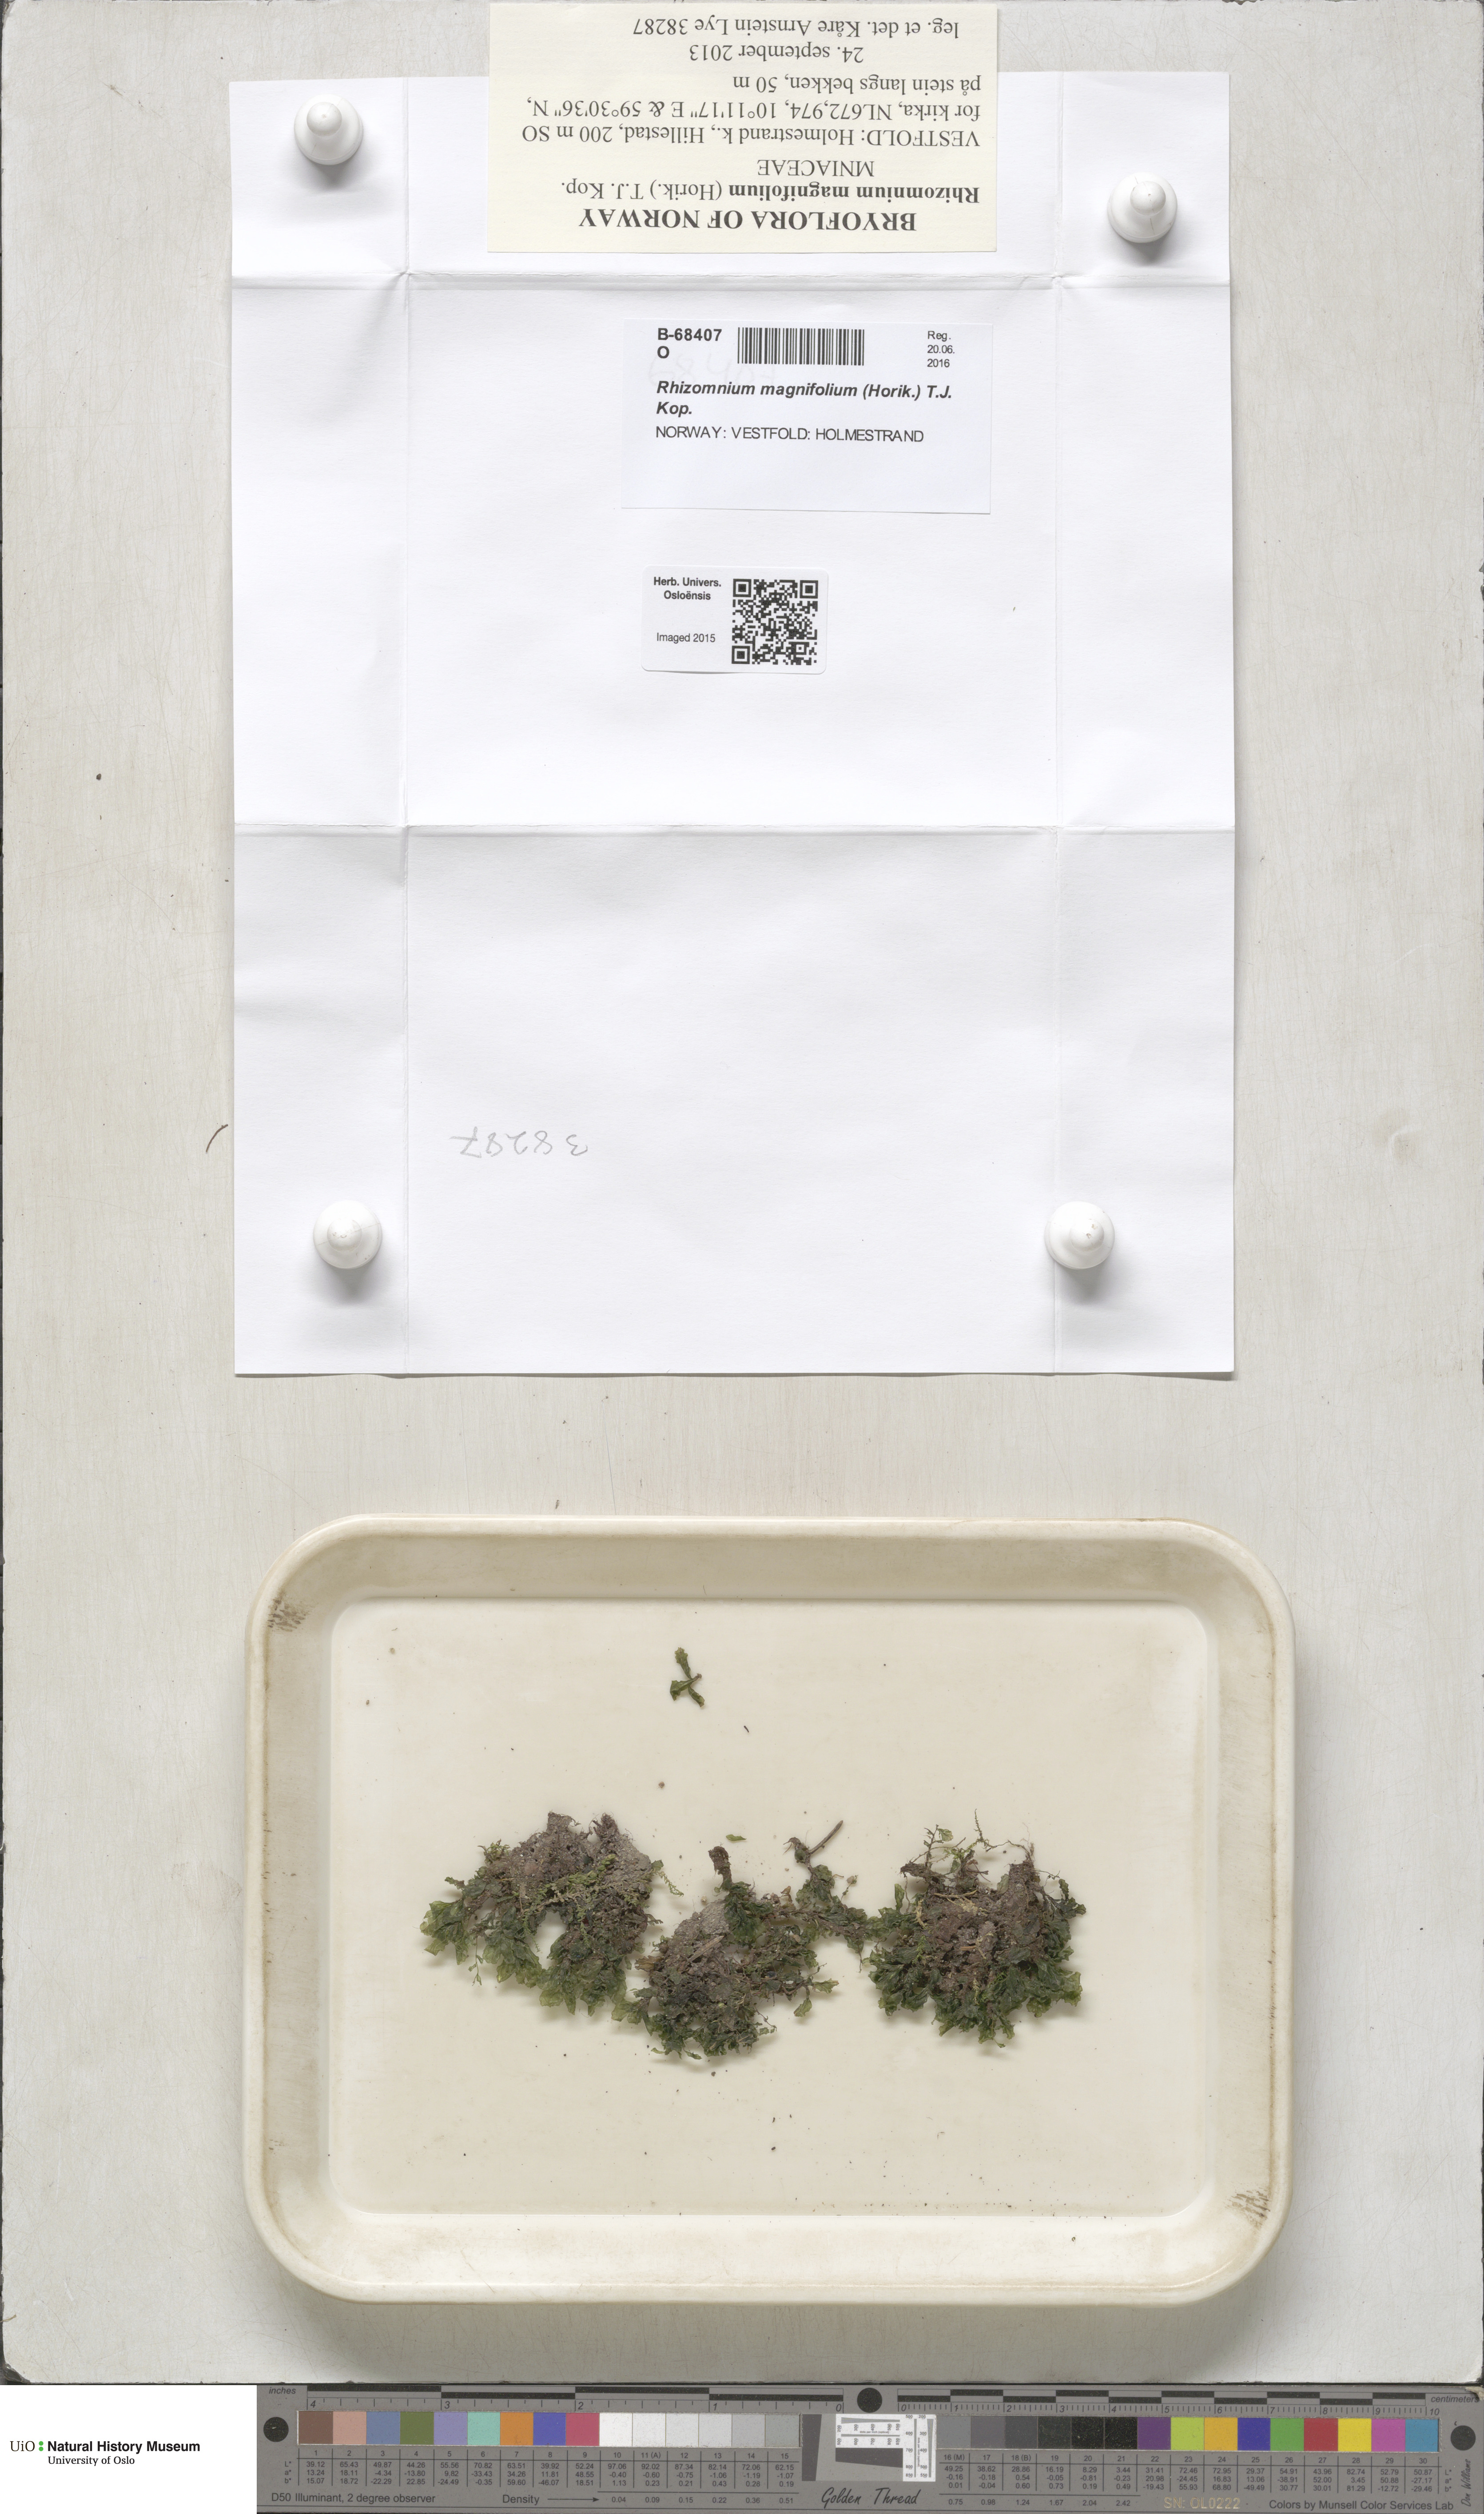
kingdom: Plantae
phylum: Bryophyta
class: Bryopsida
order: Bryales
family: Mniaceae
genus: Rhizomnium
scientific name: Rhizomnium magnifolium
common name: Large-leaved leafy moss
